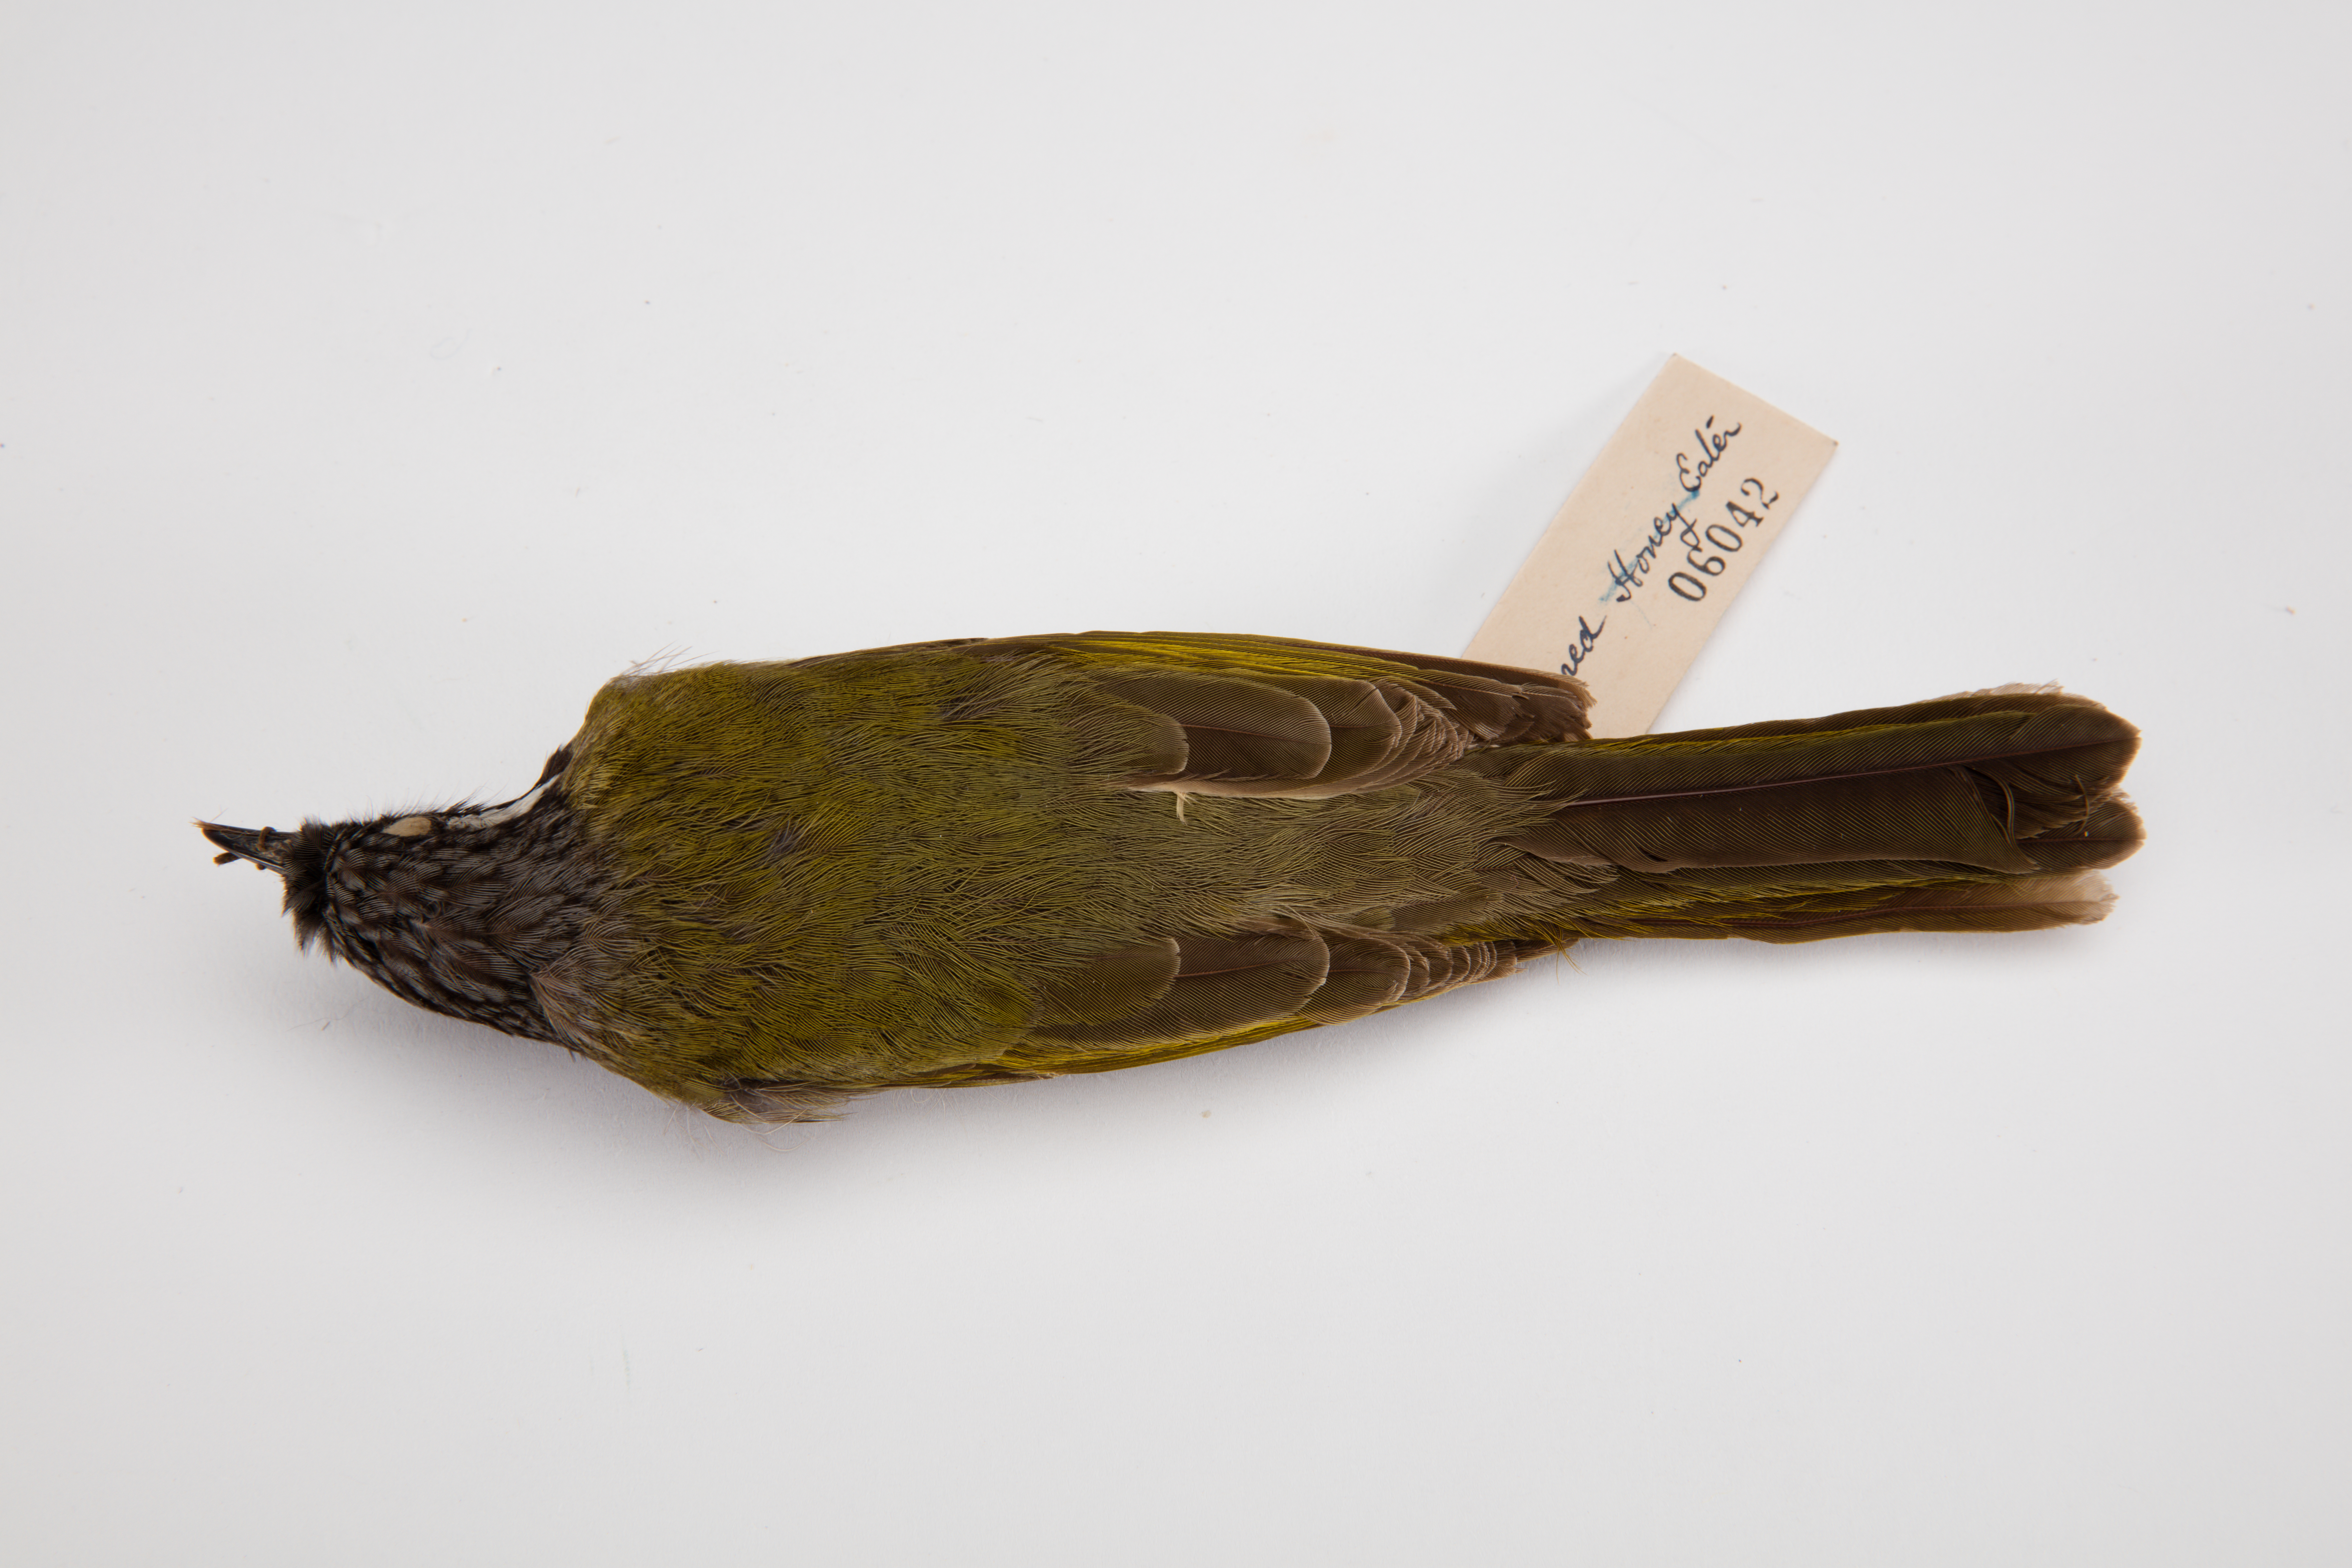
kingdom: Animalia
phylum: Chordata
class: Aves
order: Passeriformes
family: Meliphagidae
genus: Meliphaga
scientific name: Meliphaga
